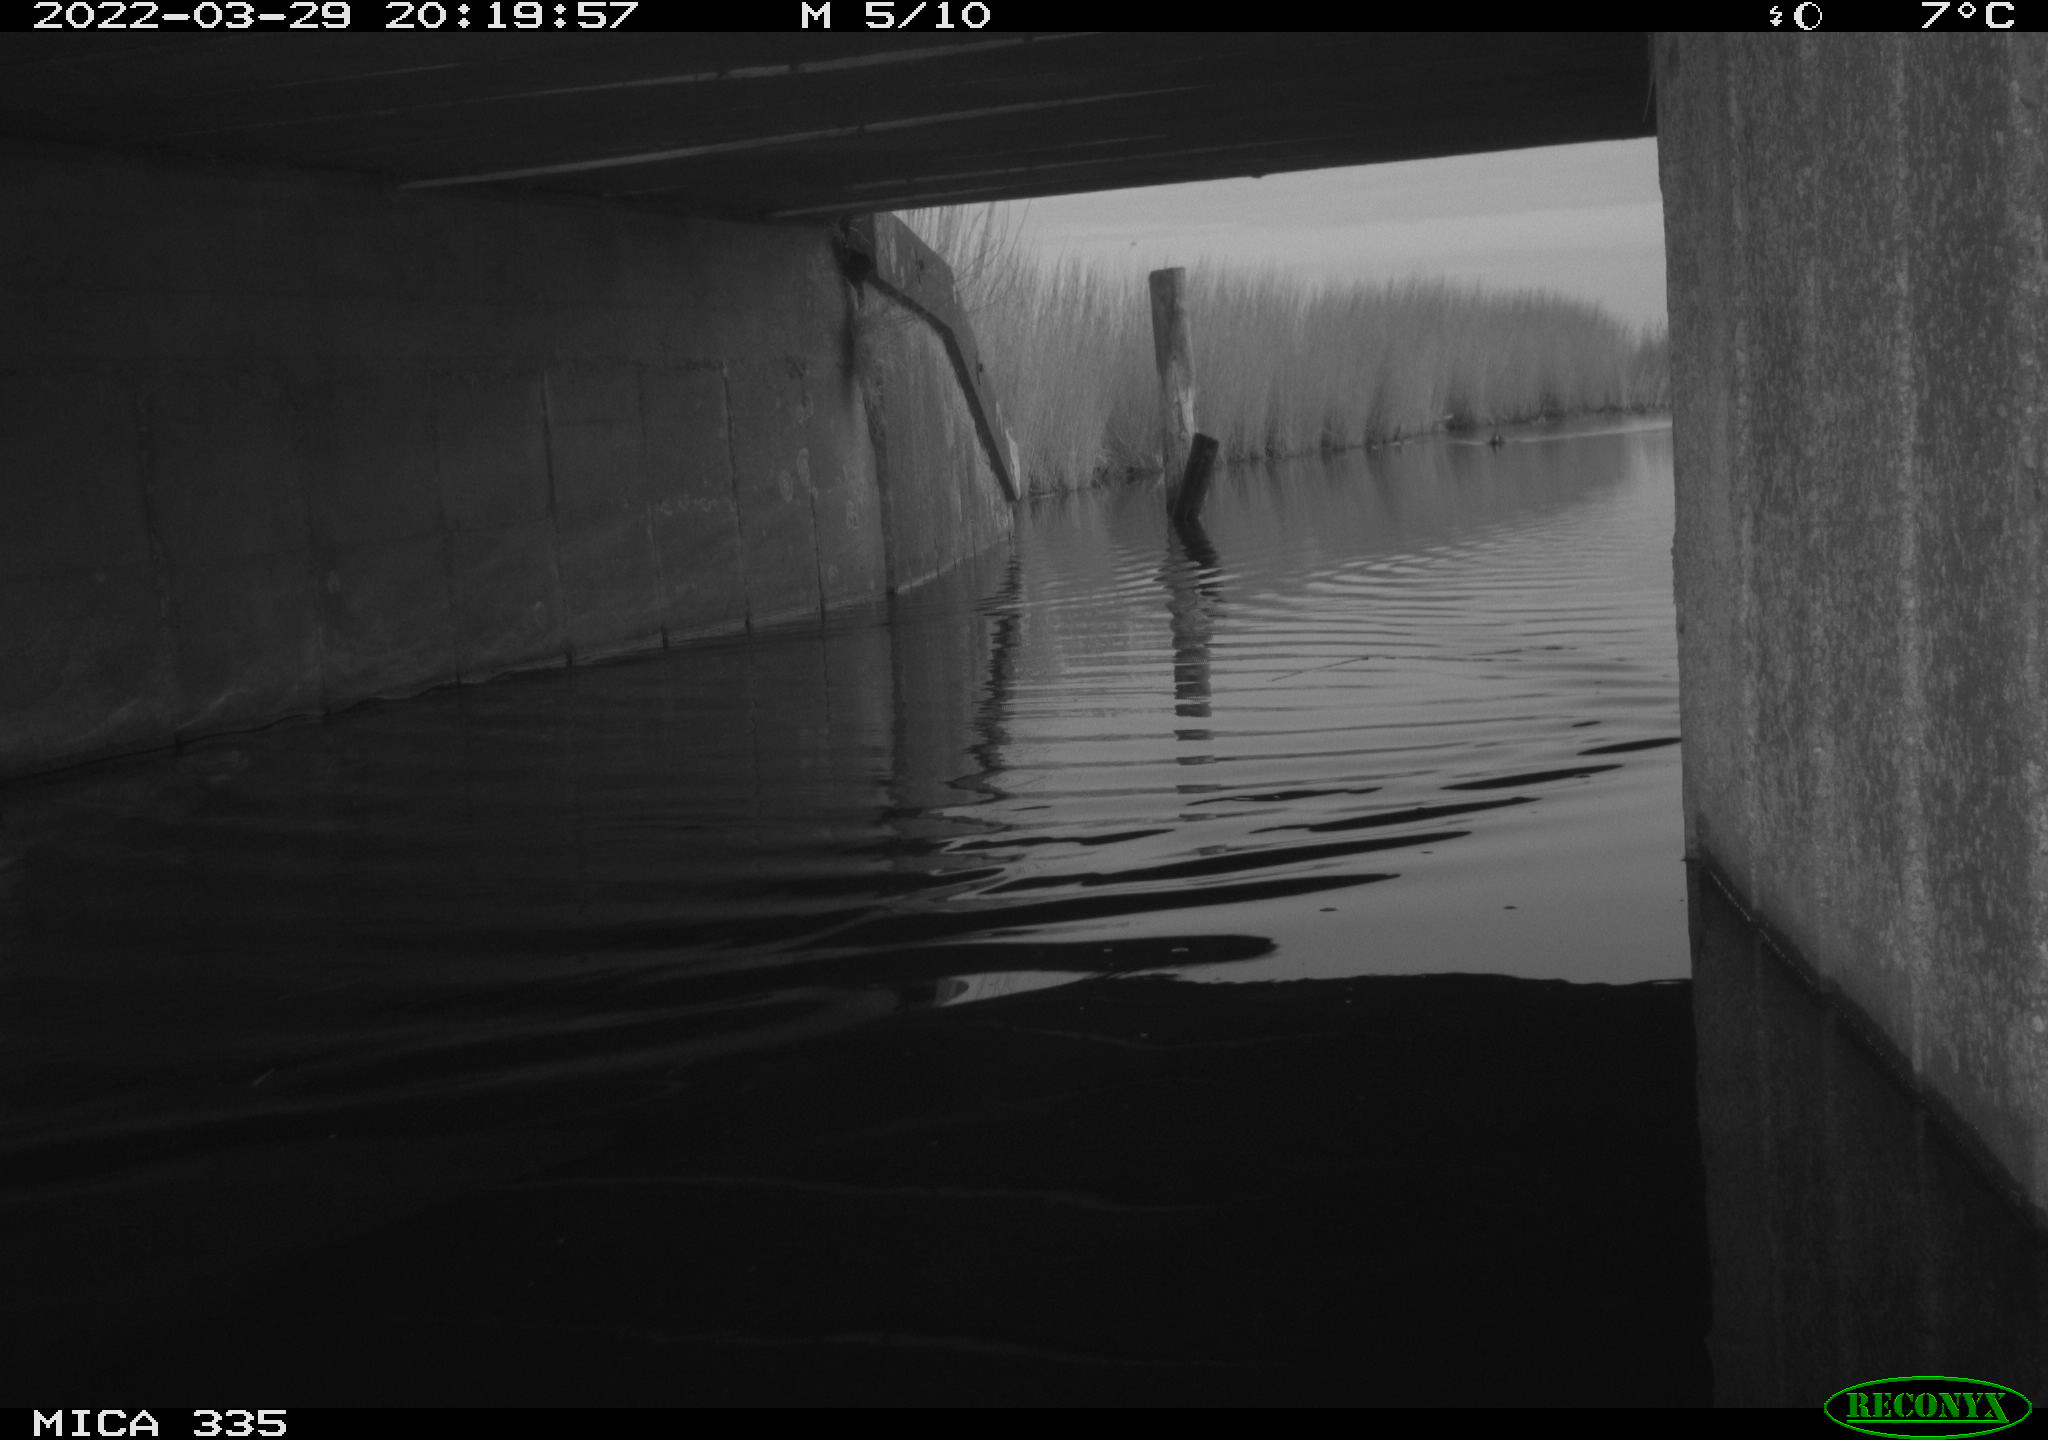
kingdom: Animalia
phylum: Chordata
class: Aves
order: Anseriformes
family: Anatidae
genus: Anas
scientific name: Anas platyrhynchos
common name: Mallard
